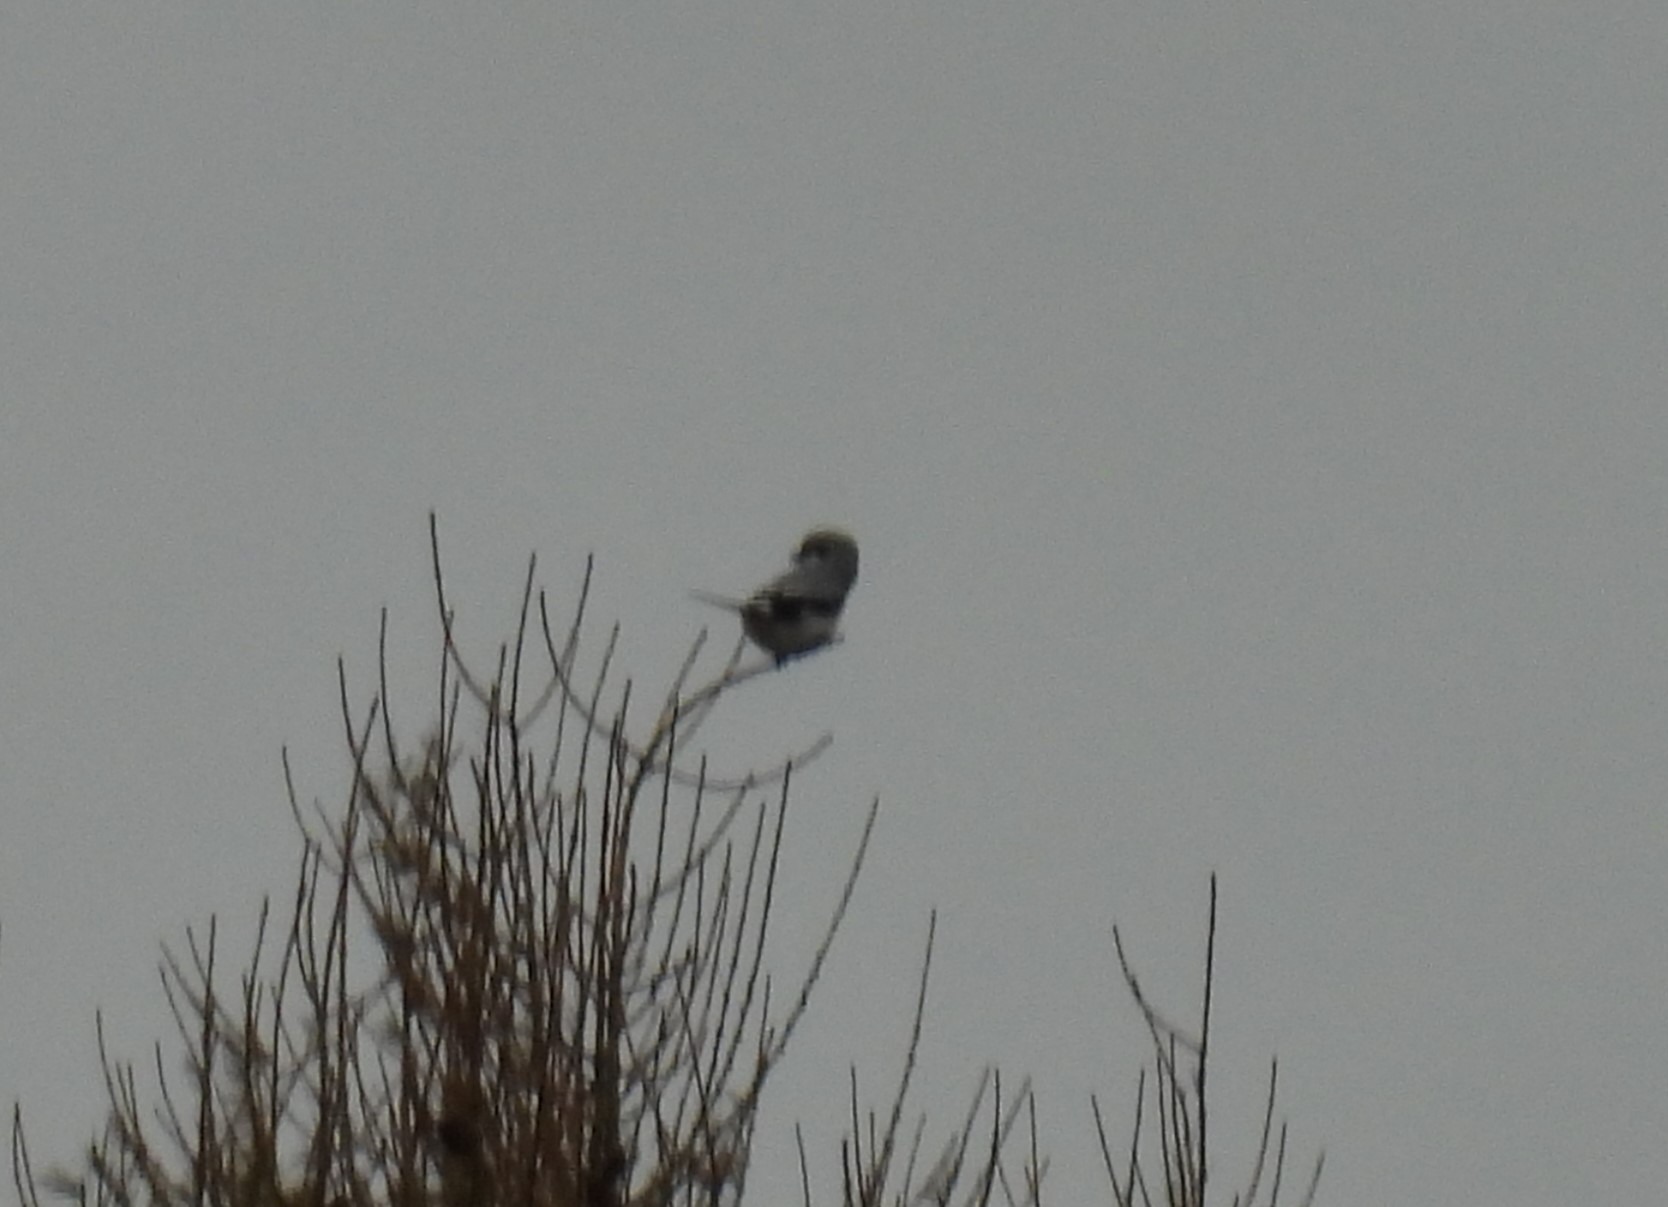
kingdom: Animalia
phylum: Chordata
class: Aves
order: Passeriformes
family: Laniidae
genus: Lanius
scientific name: Lanius excubitor
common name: Stor tornskade
